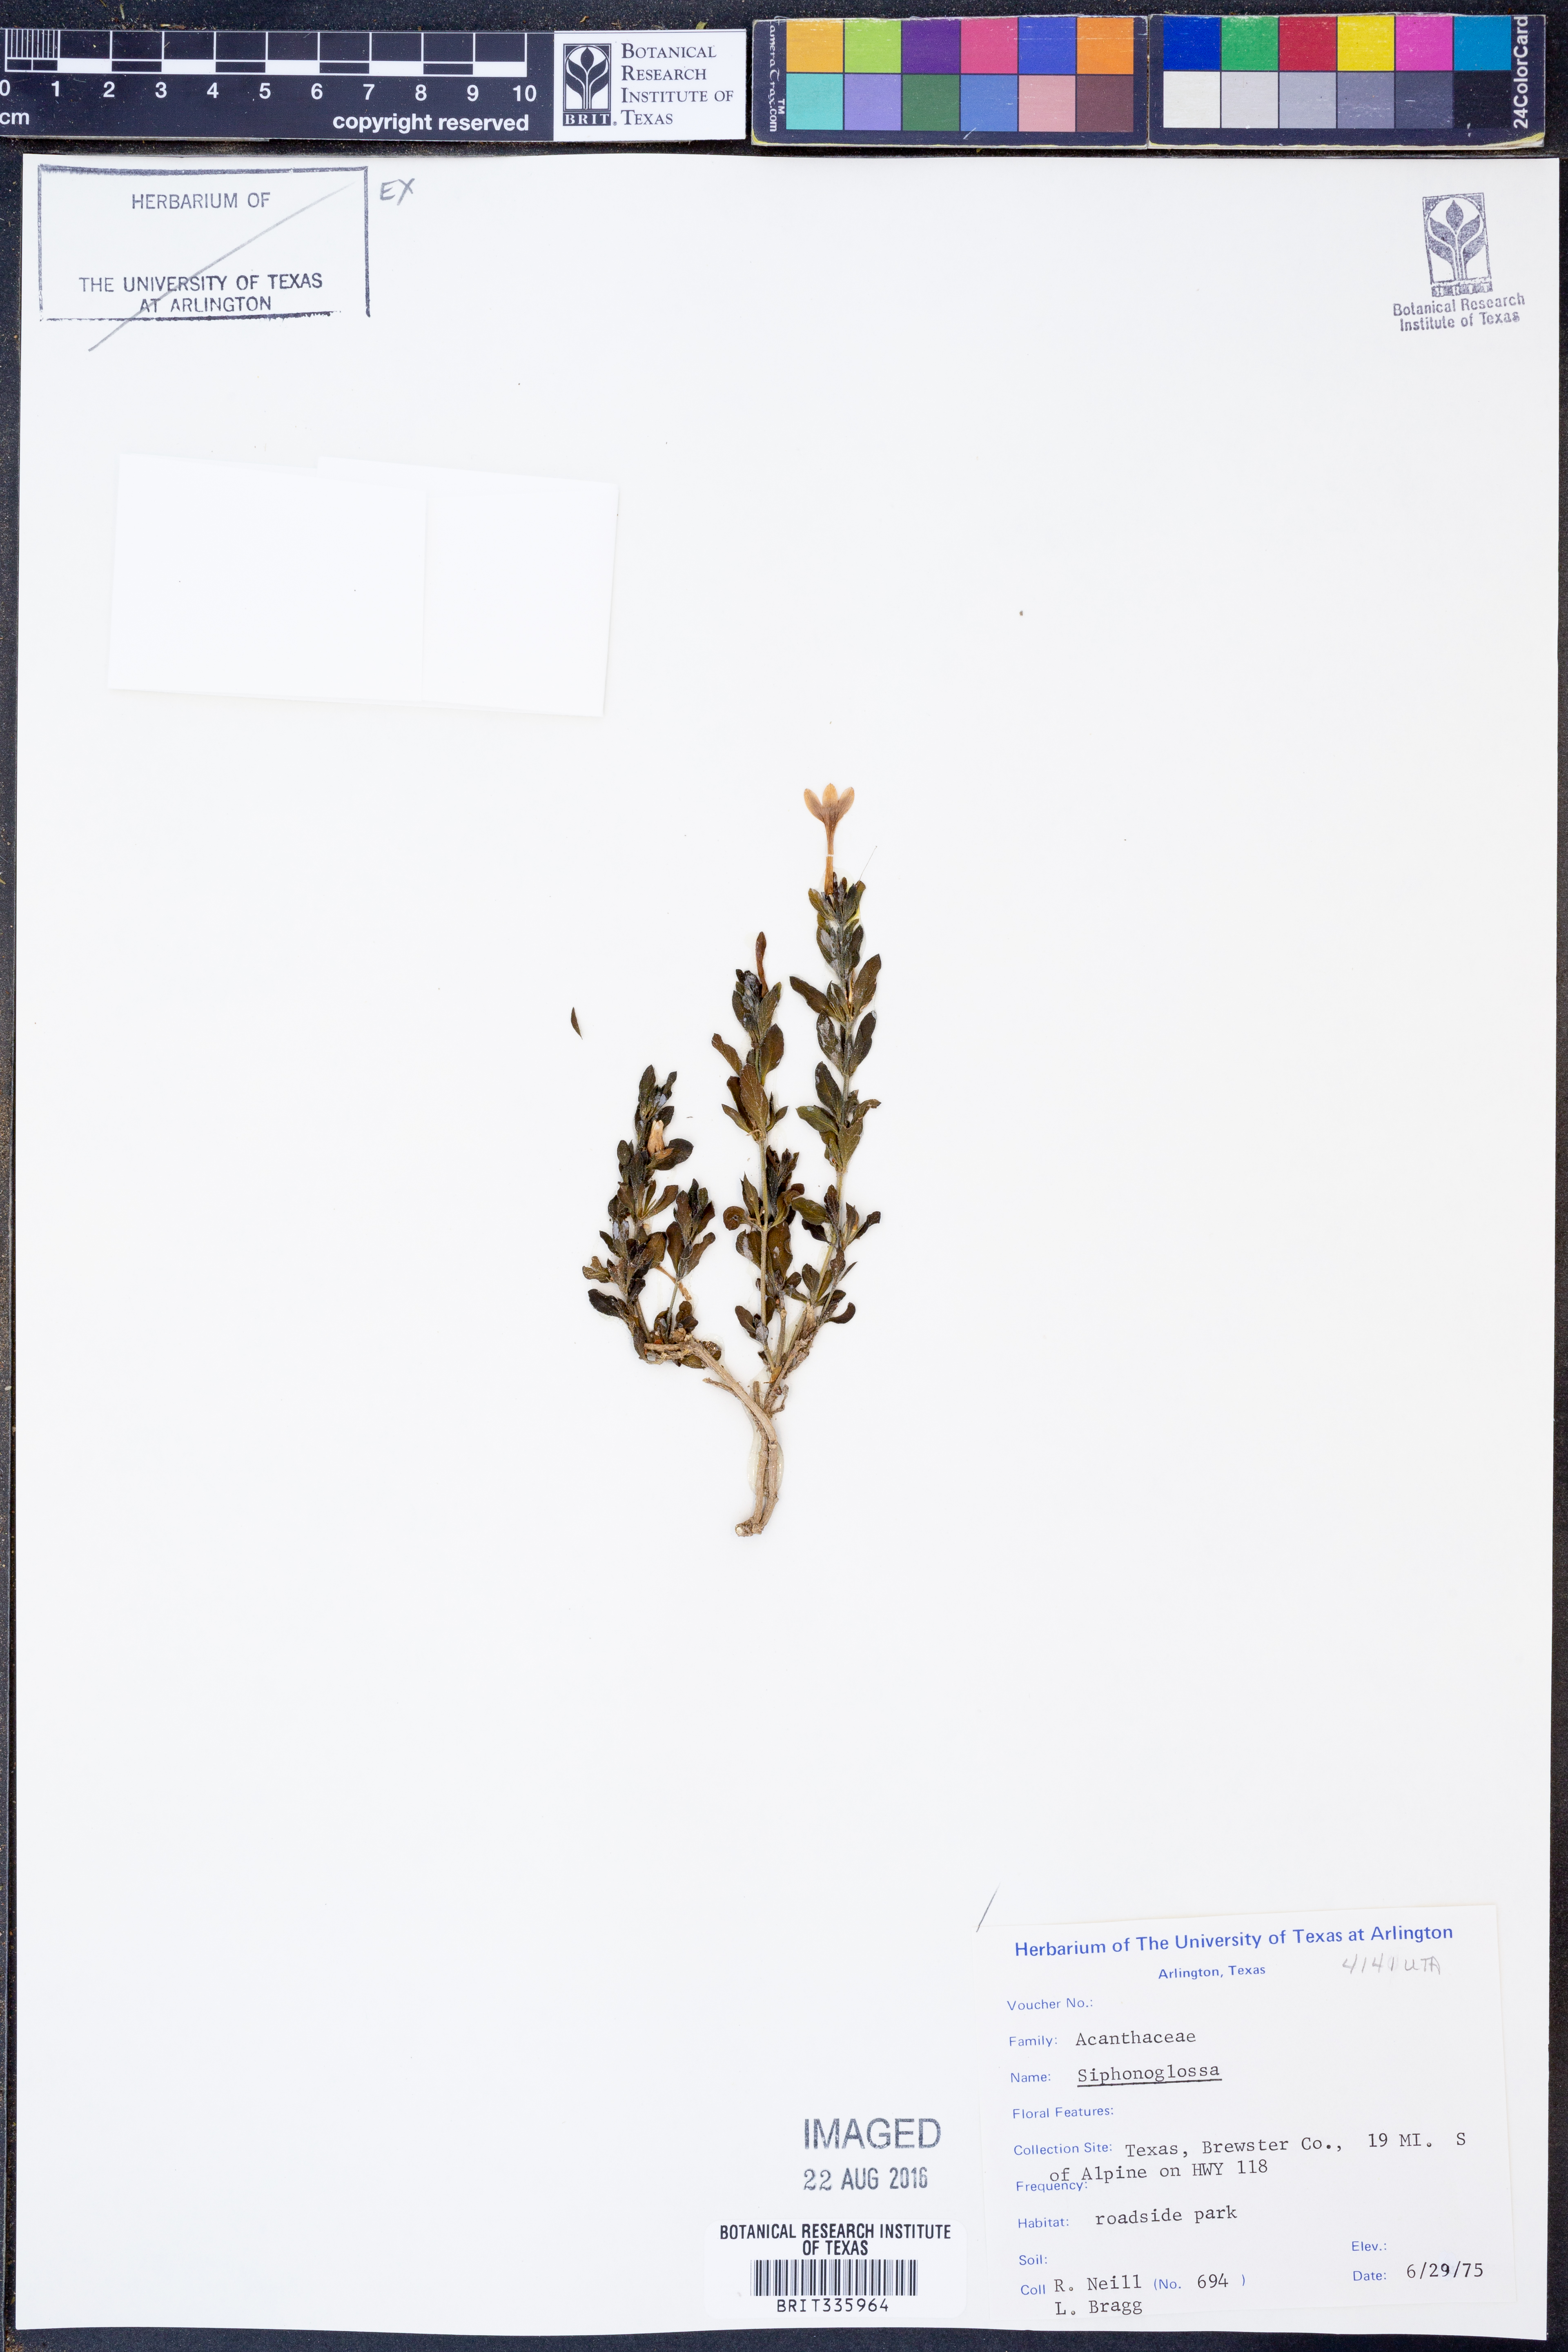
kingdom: Plantae
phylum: Tracheophyta
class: Magnoliopsida
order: Lamiales
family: Acanthaceae
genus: Justicia
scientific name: Justicia
